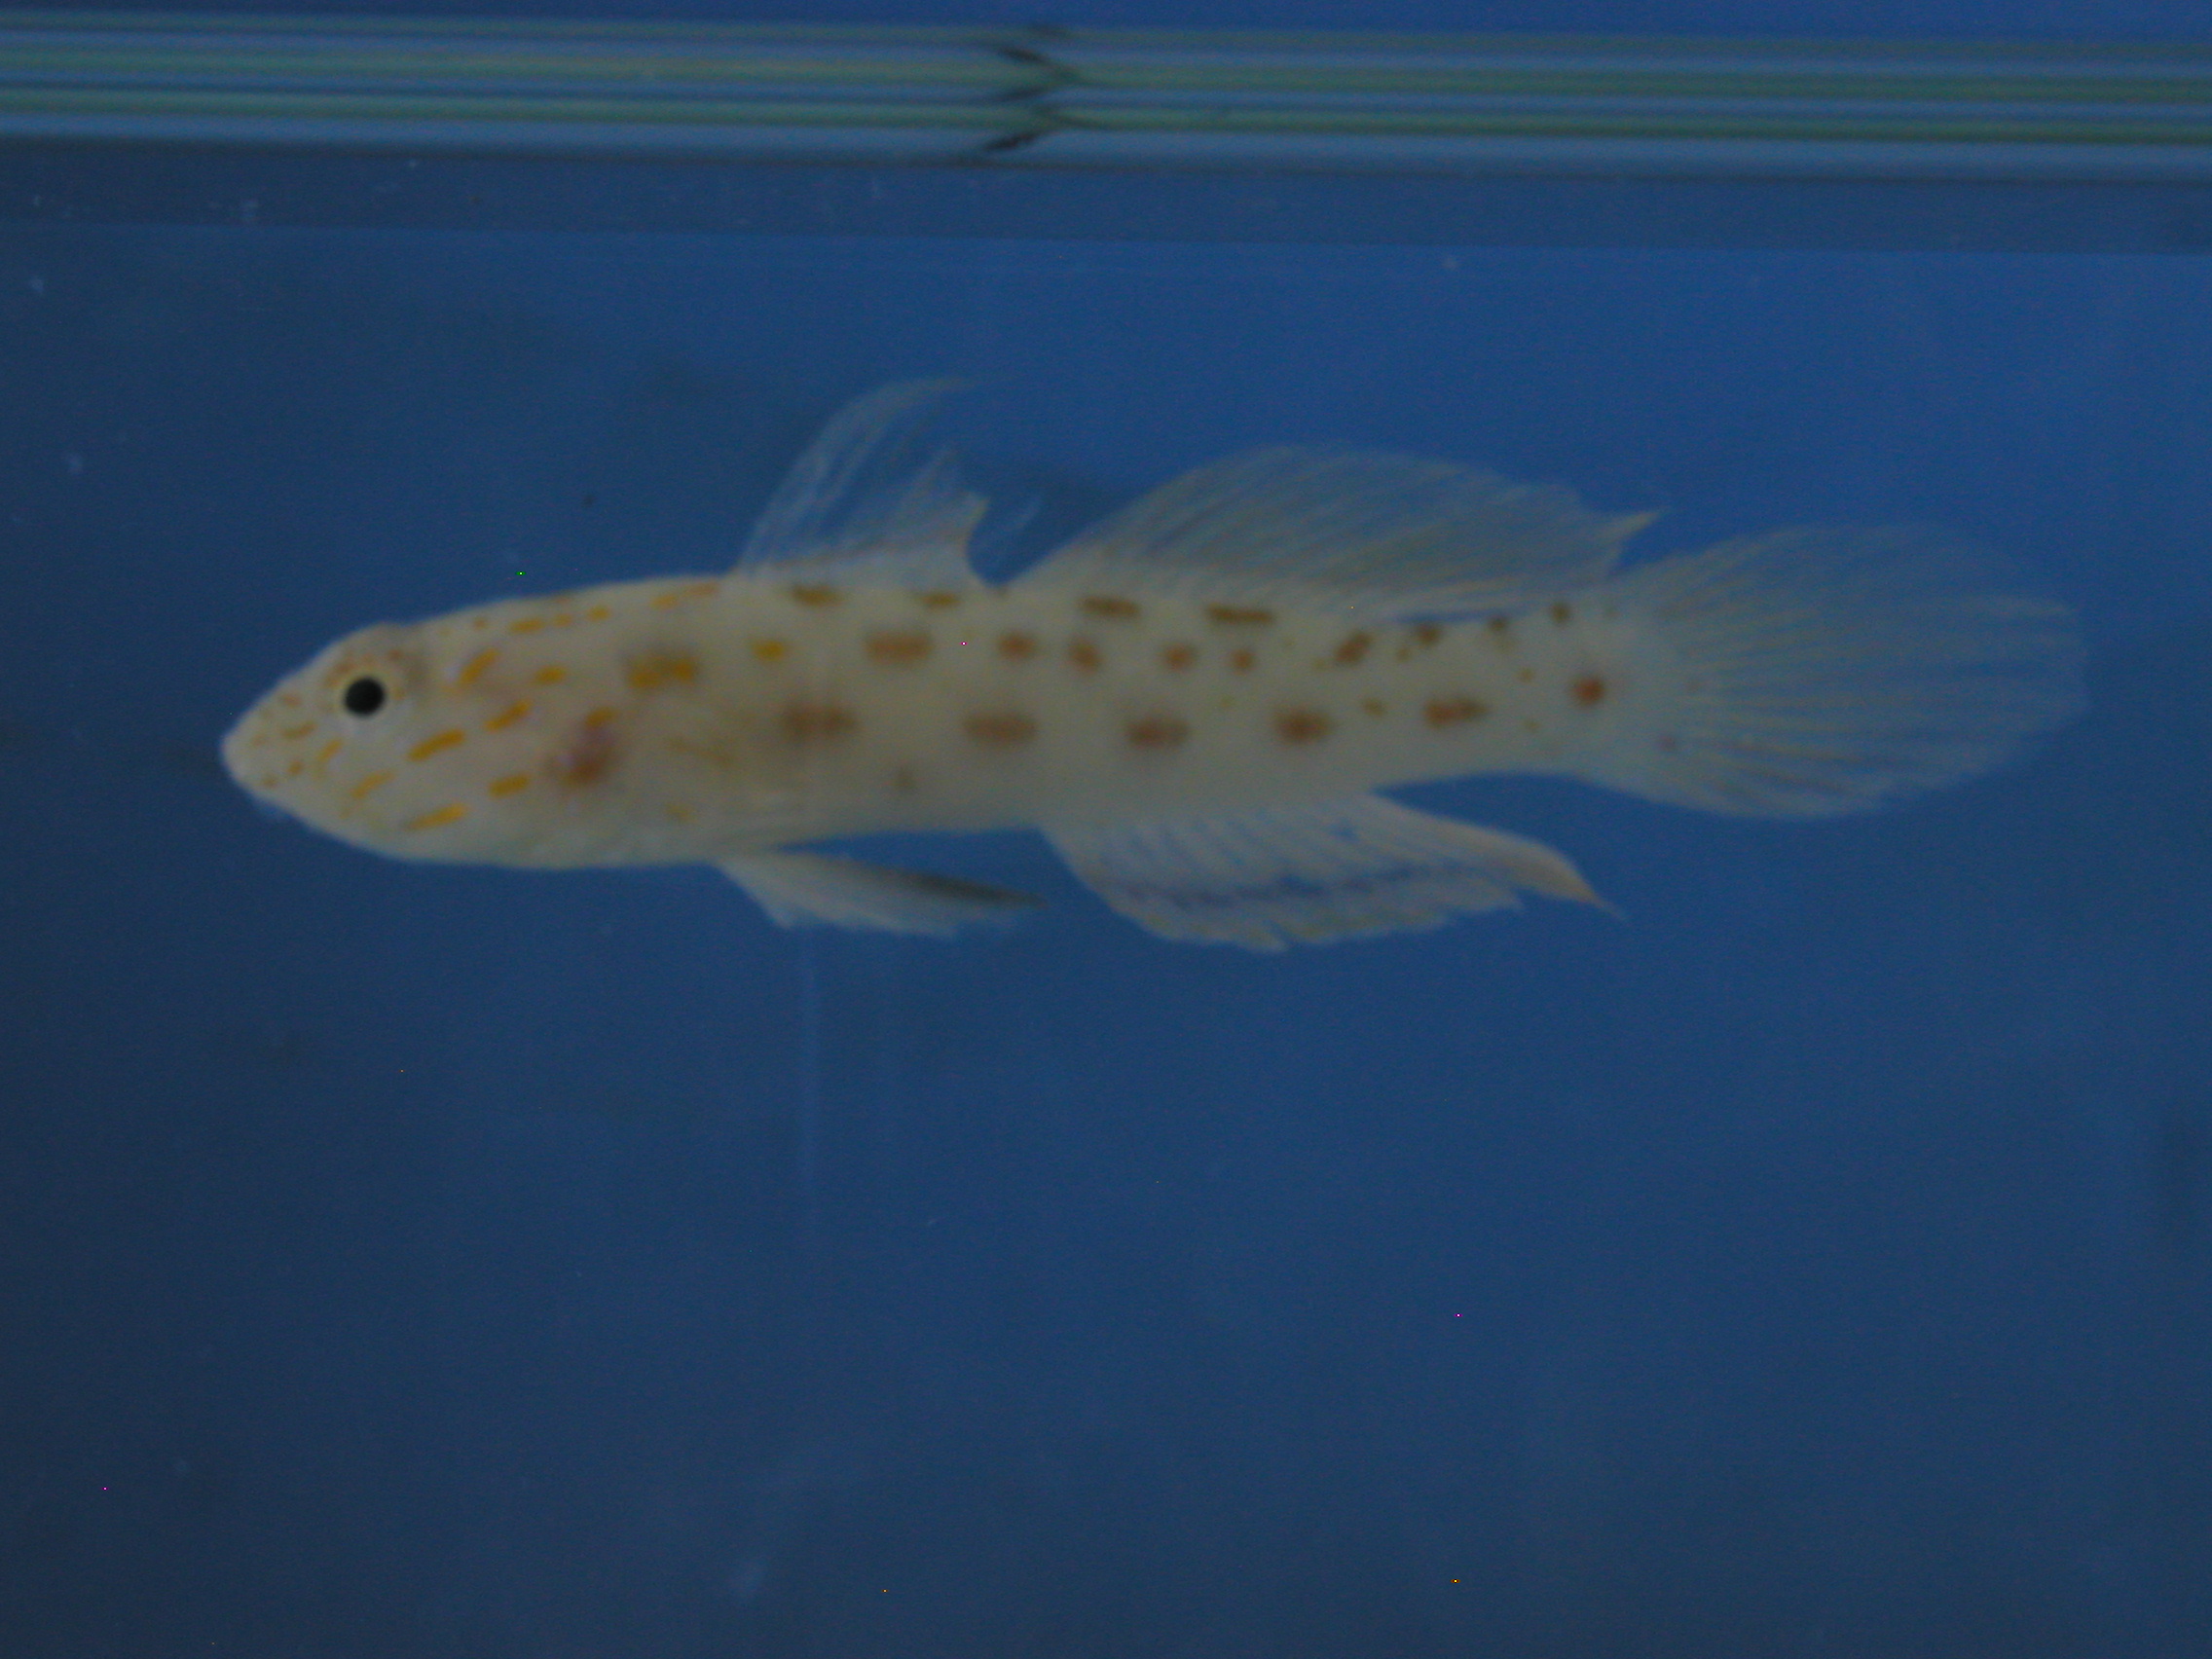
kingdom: Animalia
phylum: Chordata
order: Perciformes
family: Gobiidae
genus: Ctenogobiops
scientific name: Ctenogobiops crocineus
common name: Silverspot shrimpgoby
